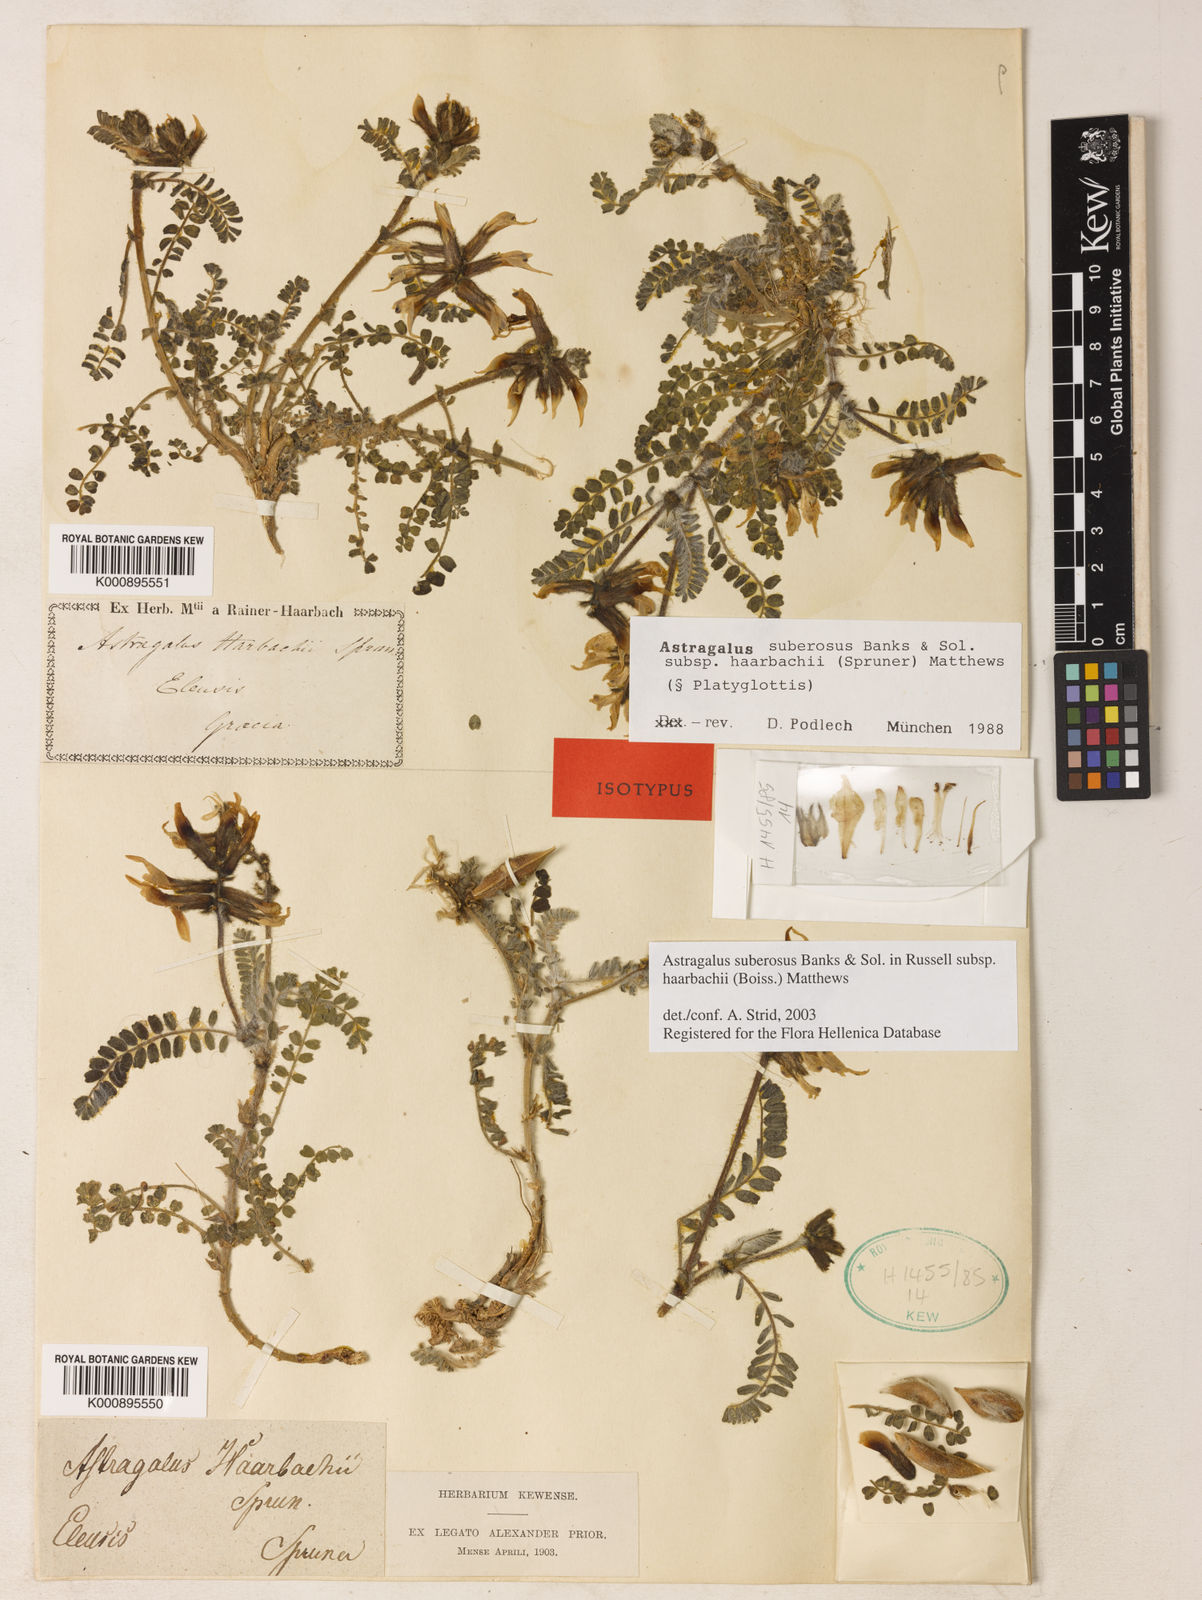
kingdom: Plantae
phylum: Tracheophyta
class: Magnoliopsida
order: Fabales
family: Fabaceae
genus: Astragalus
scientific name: Astragalus suberosus
